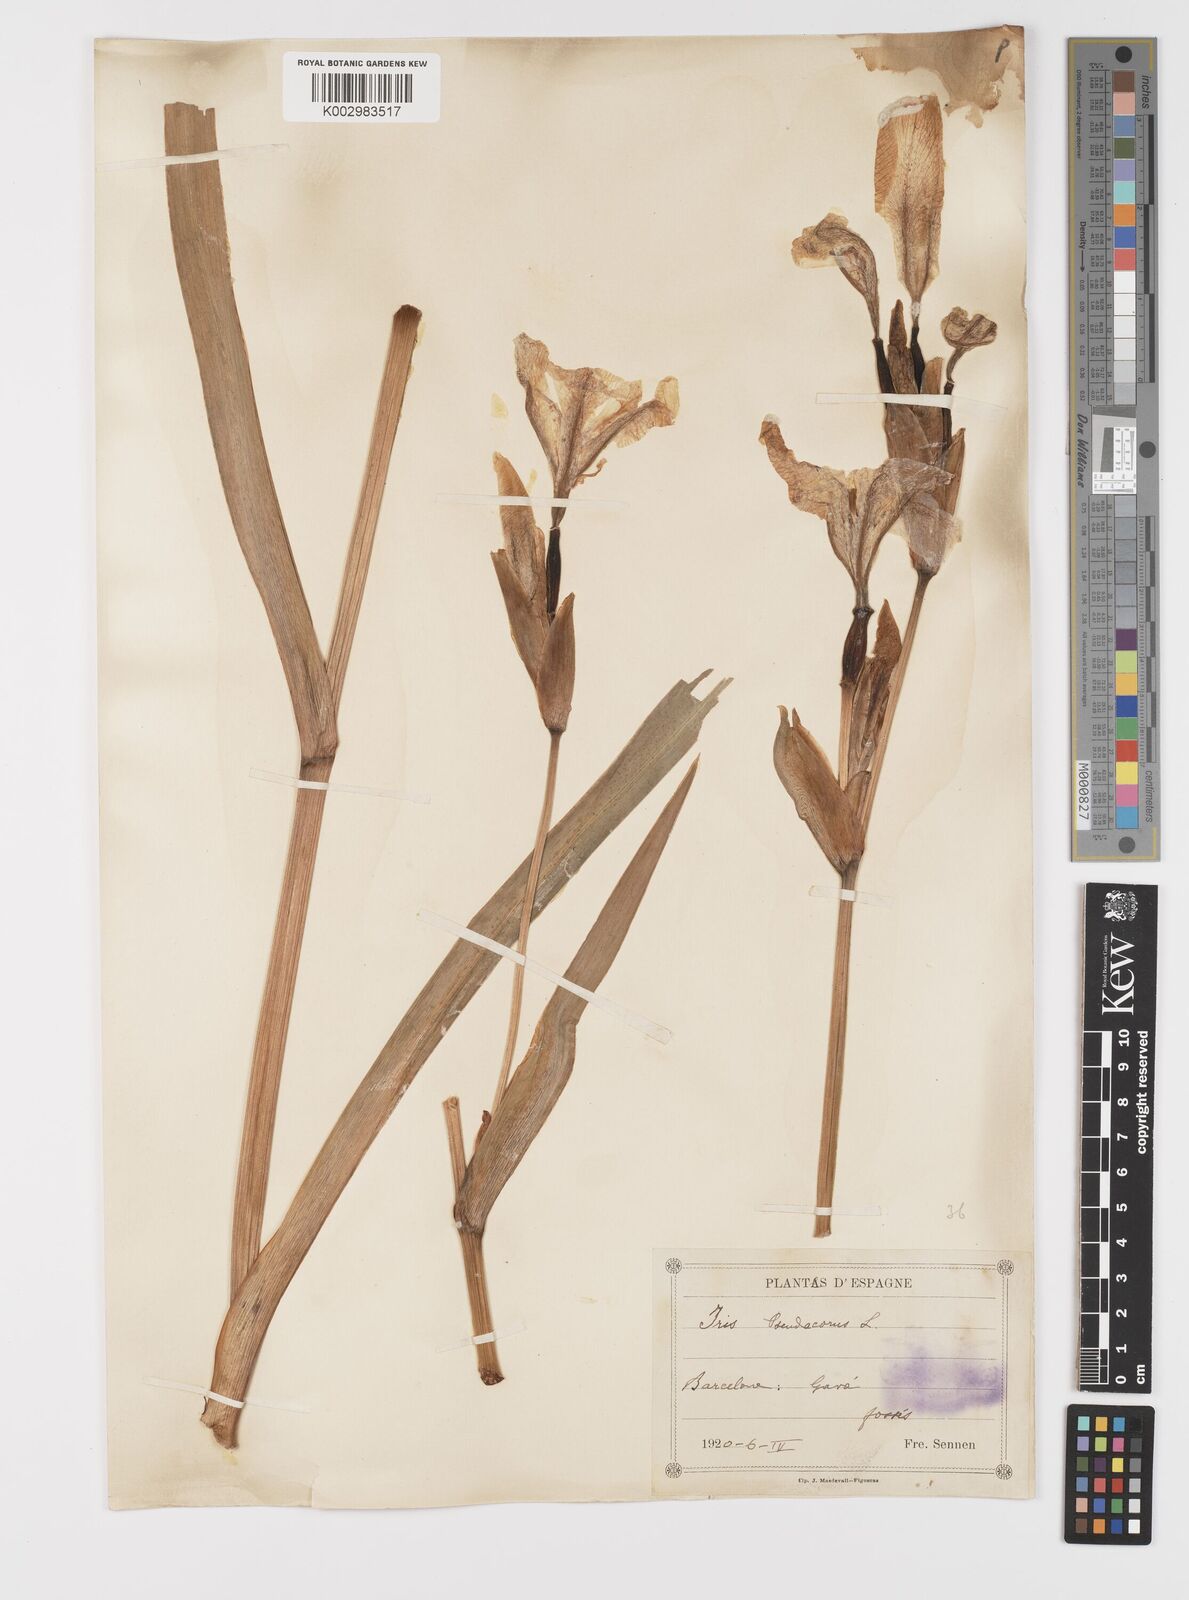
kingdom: Plantae
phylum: Tracheophyta
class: Liliopsida
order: Asparagales
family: Iridaceae
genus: Iris
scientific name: Iris pseudacorus
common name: Yellow flag
